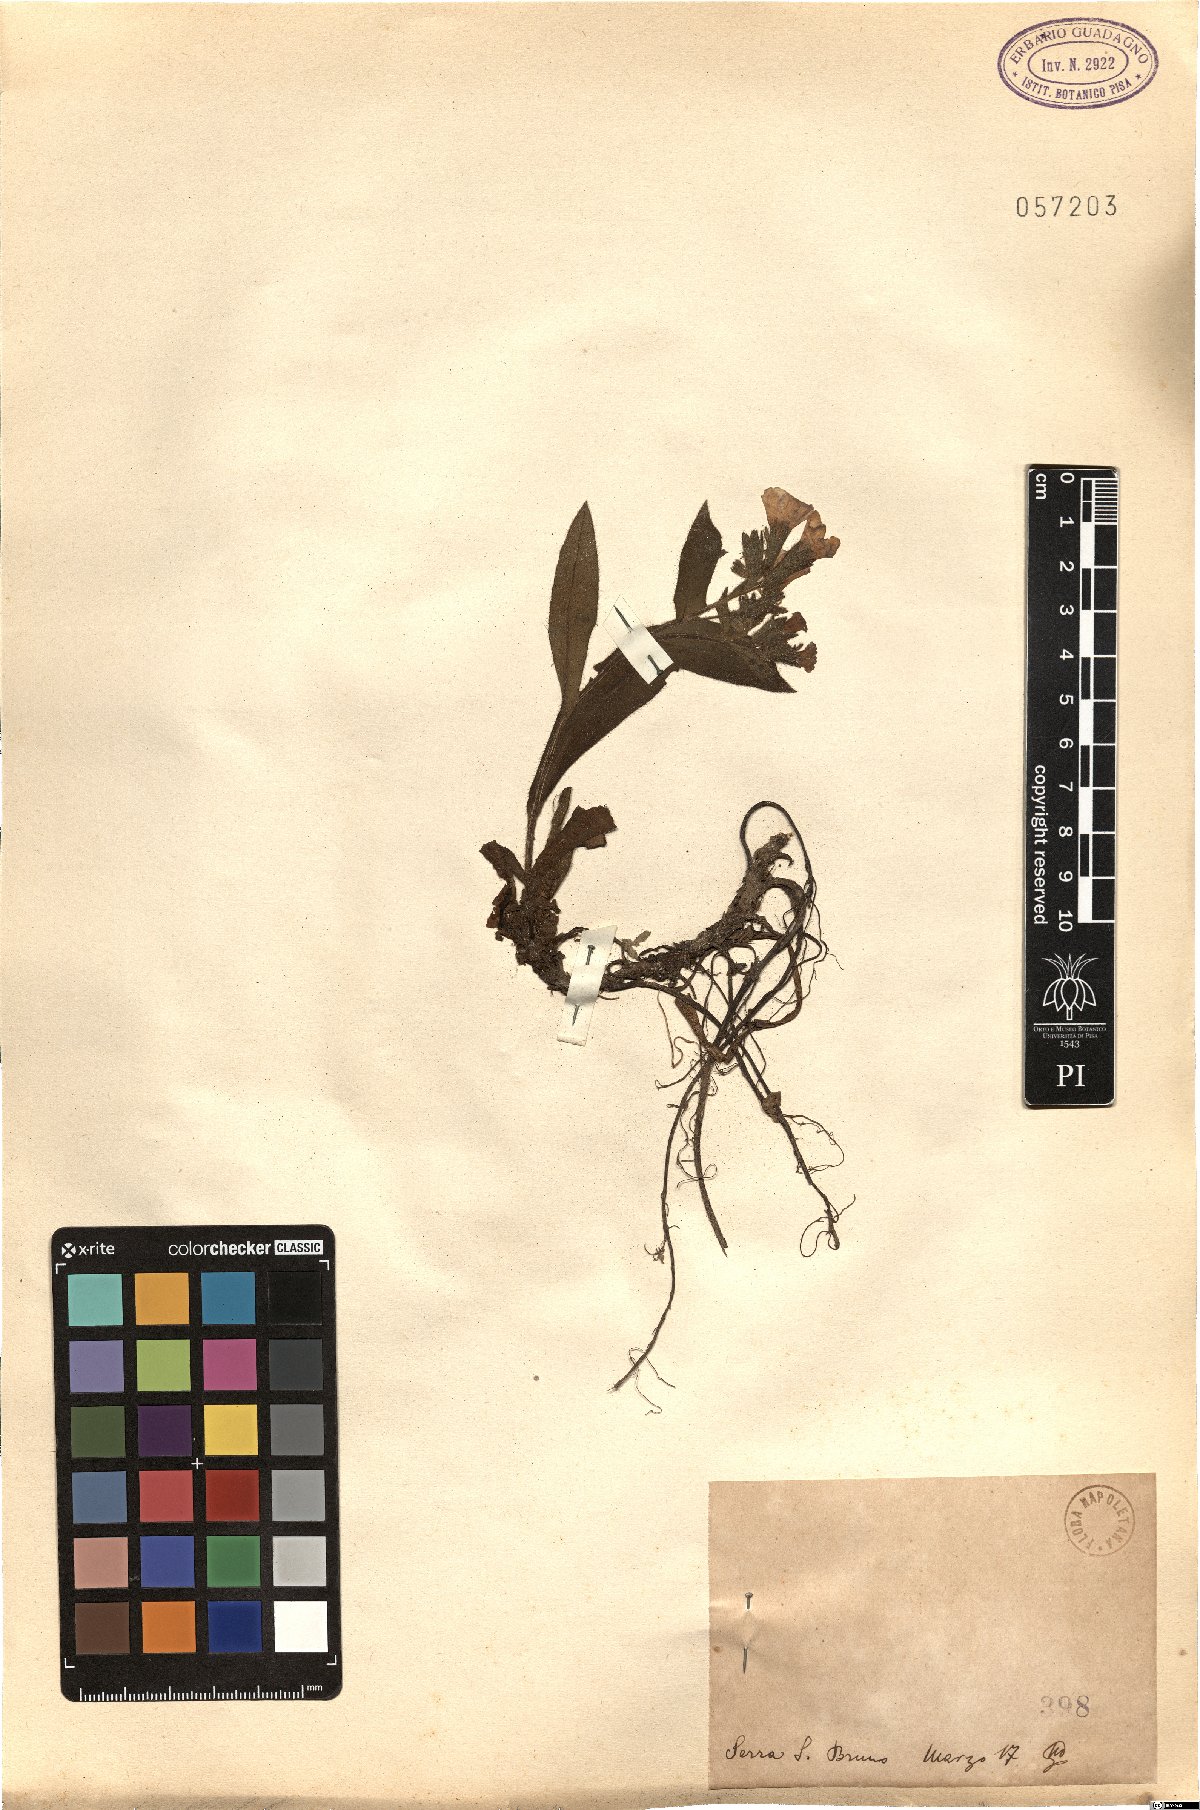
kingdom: Plantae
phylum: Tracheophyta
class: Magnoliopsida
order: Boraginales
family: Boraginaceae
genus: Alkanna
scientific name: Alkanna
